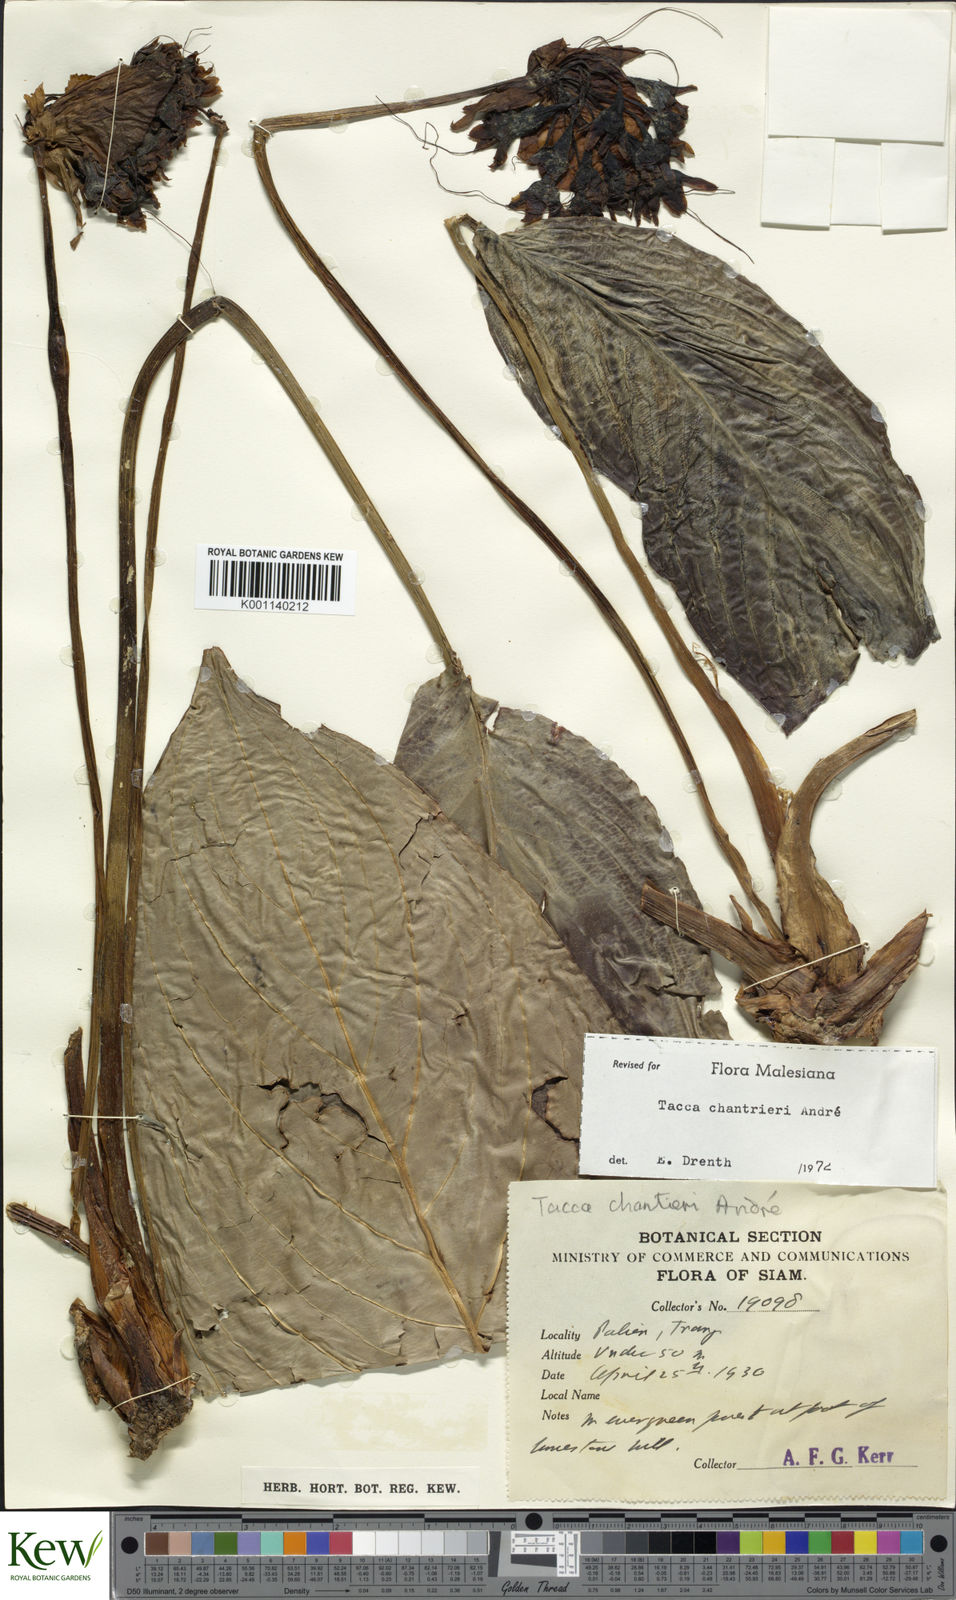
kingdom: Plantae
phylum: Tracheophyta
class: Liliopsida
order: Dioscoreales
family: Dioscoreaceae
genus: Tacca
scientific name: Tacca
